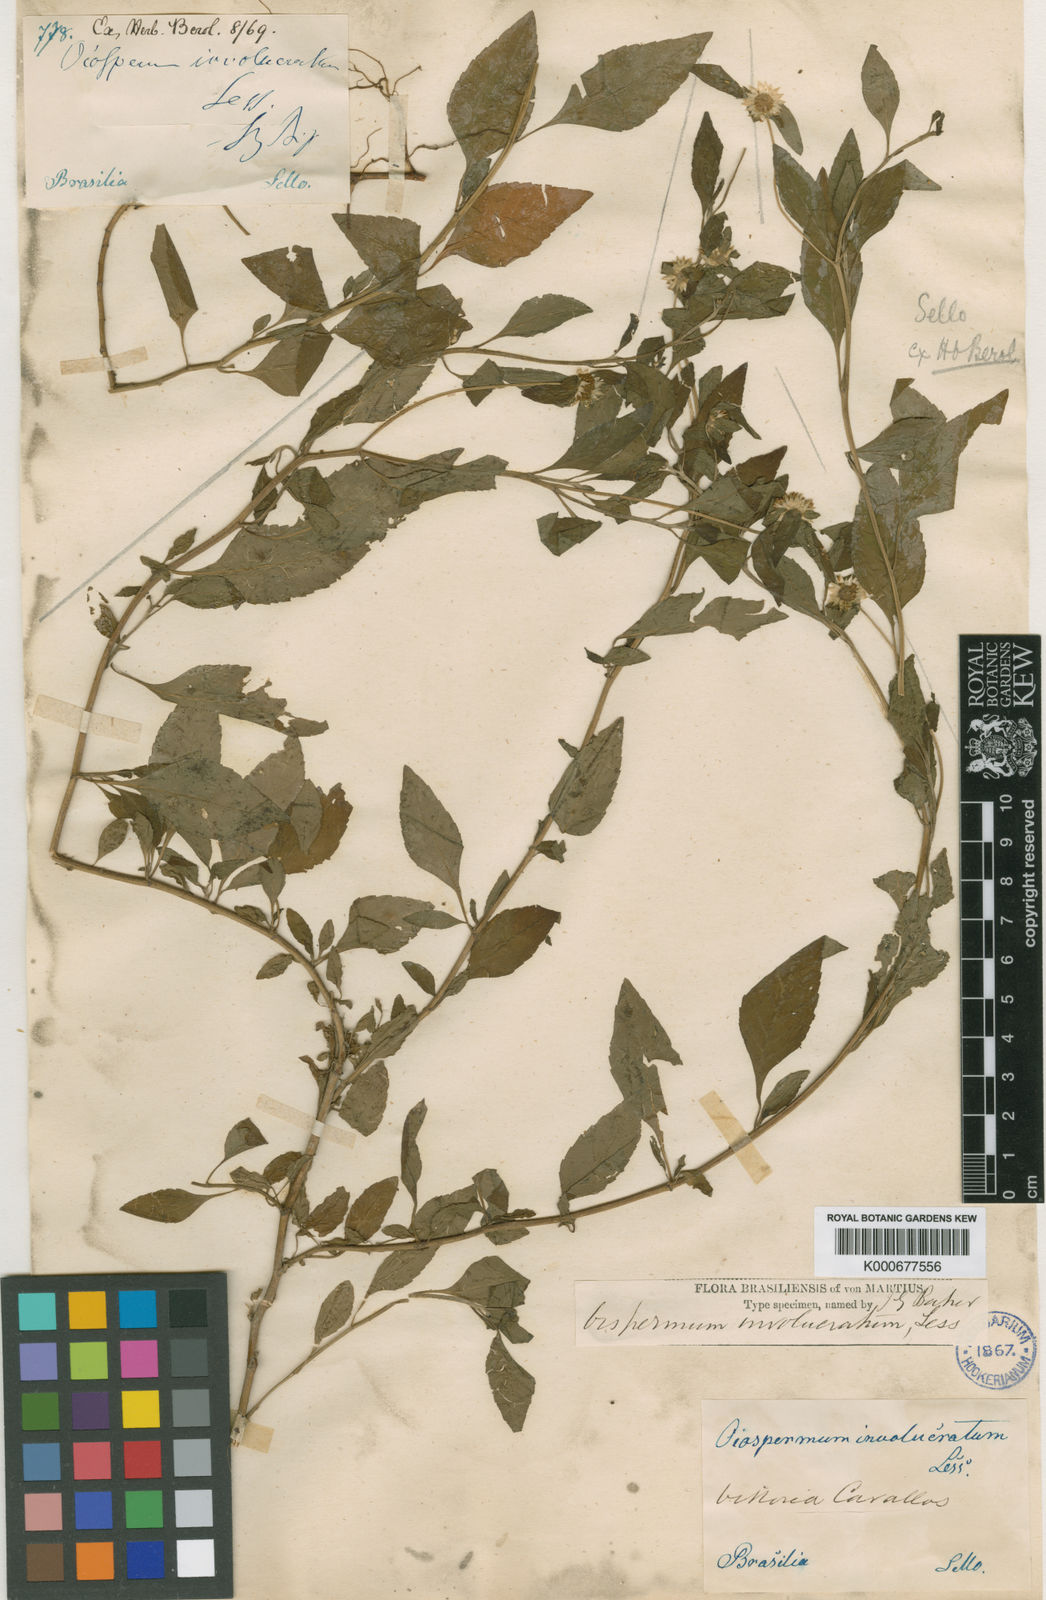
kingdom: Plantae
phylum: Tracheophyta
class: Magnoliopsida
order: Asterales
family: Asteraceae
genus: Centratherum
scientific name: Centratherum repens
